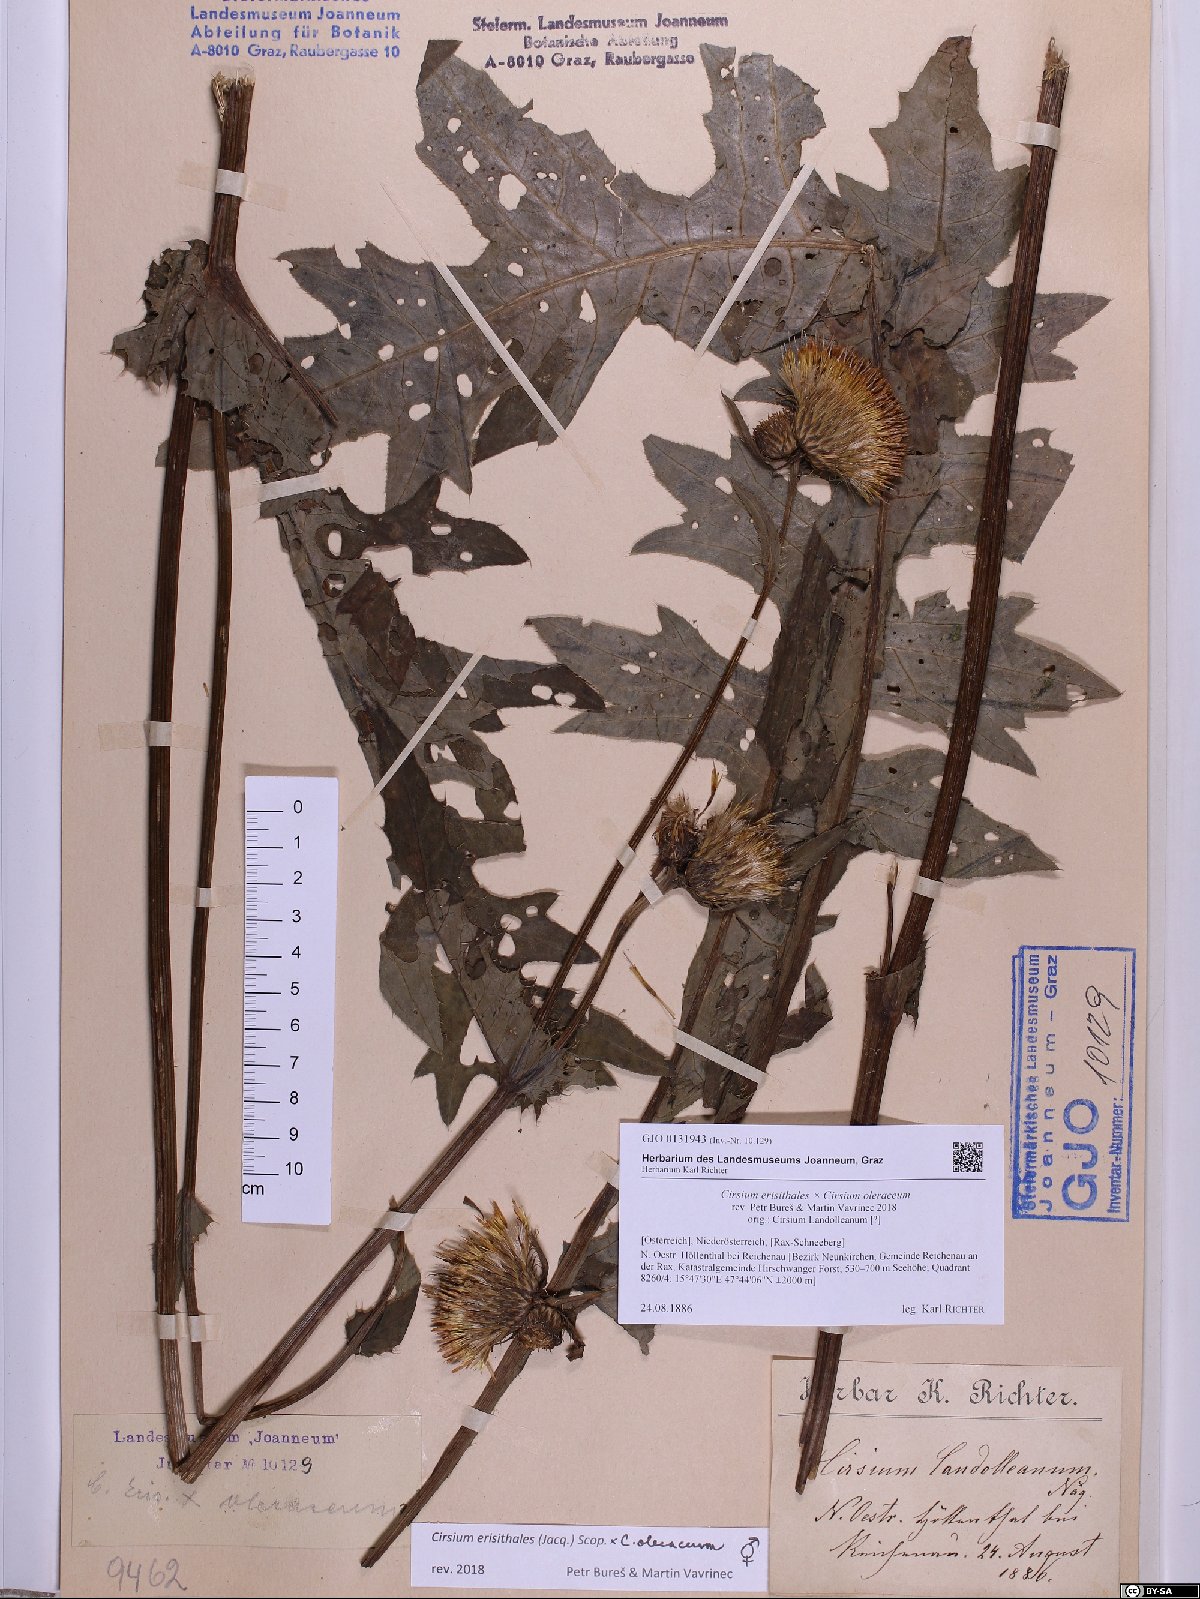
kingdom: Plantae
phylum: Tracheophyta
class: Magnoliopsida
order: Asterales
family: Asteraceae
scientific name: Asteraceae
